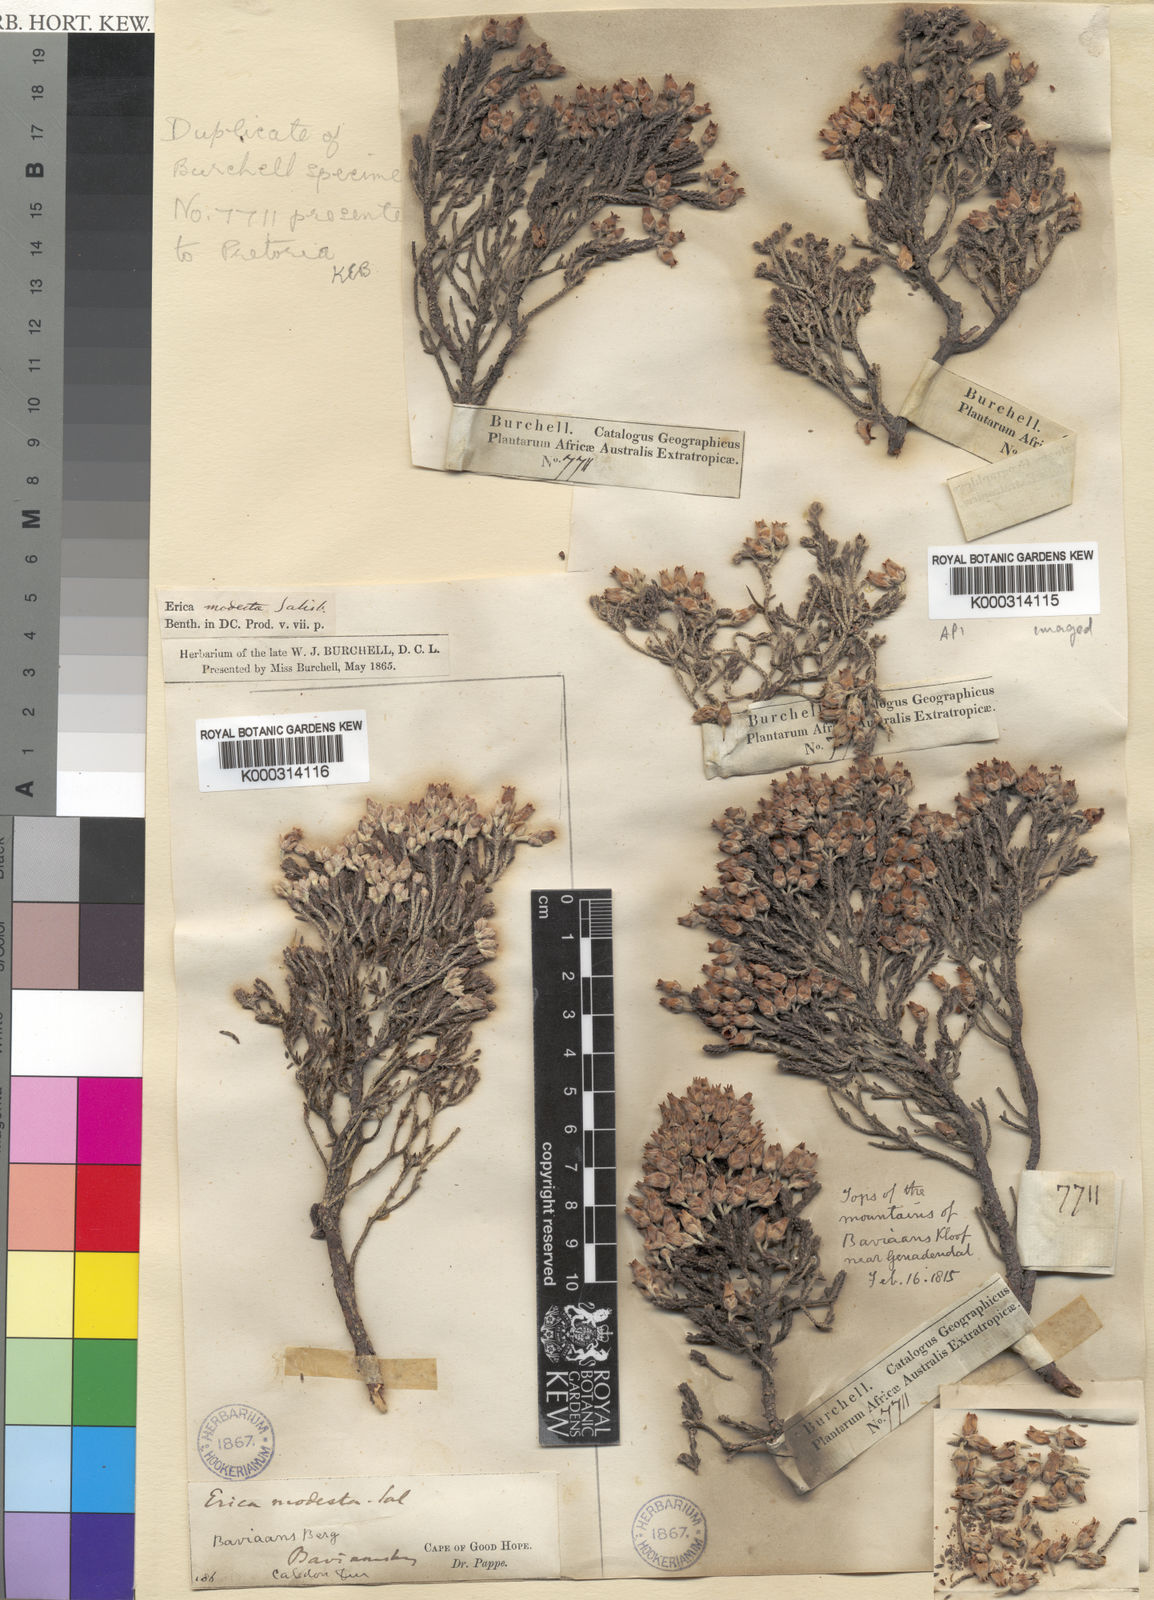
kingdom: Plantae
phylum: Tracheophyta
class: Magnoliopsida
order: Ericales
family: Ericaceae
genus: Erica
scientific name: Erica modesta
